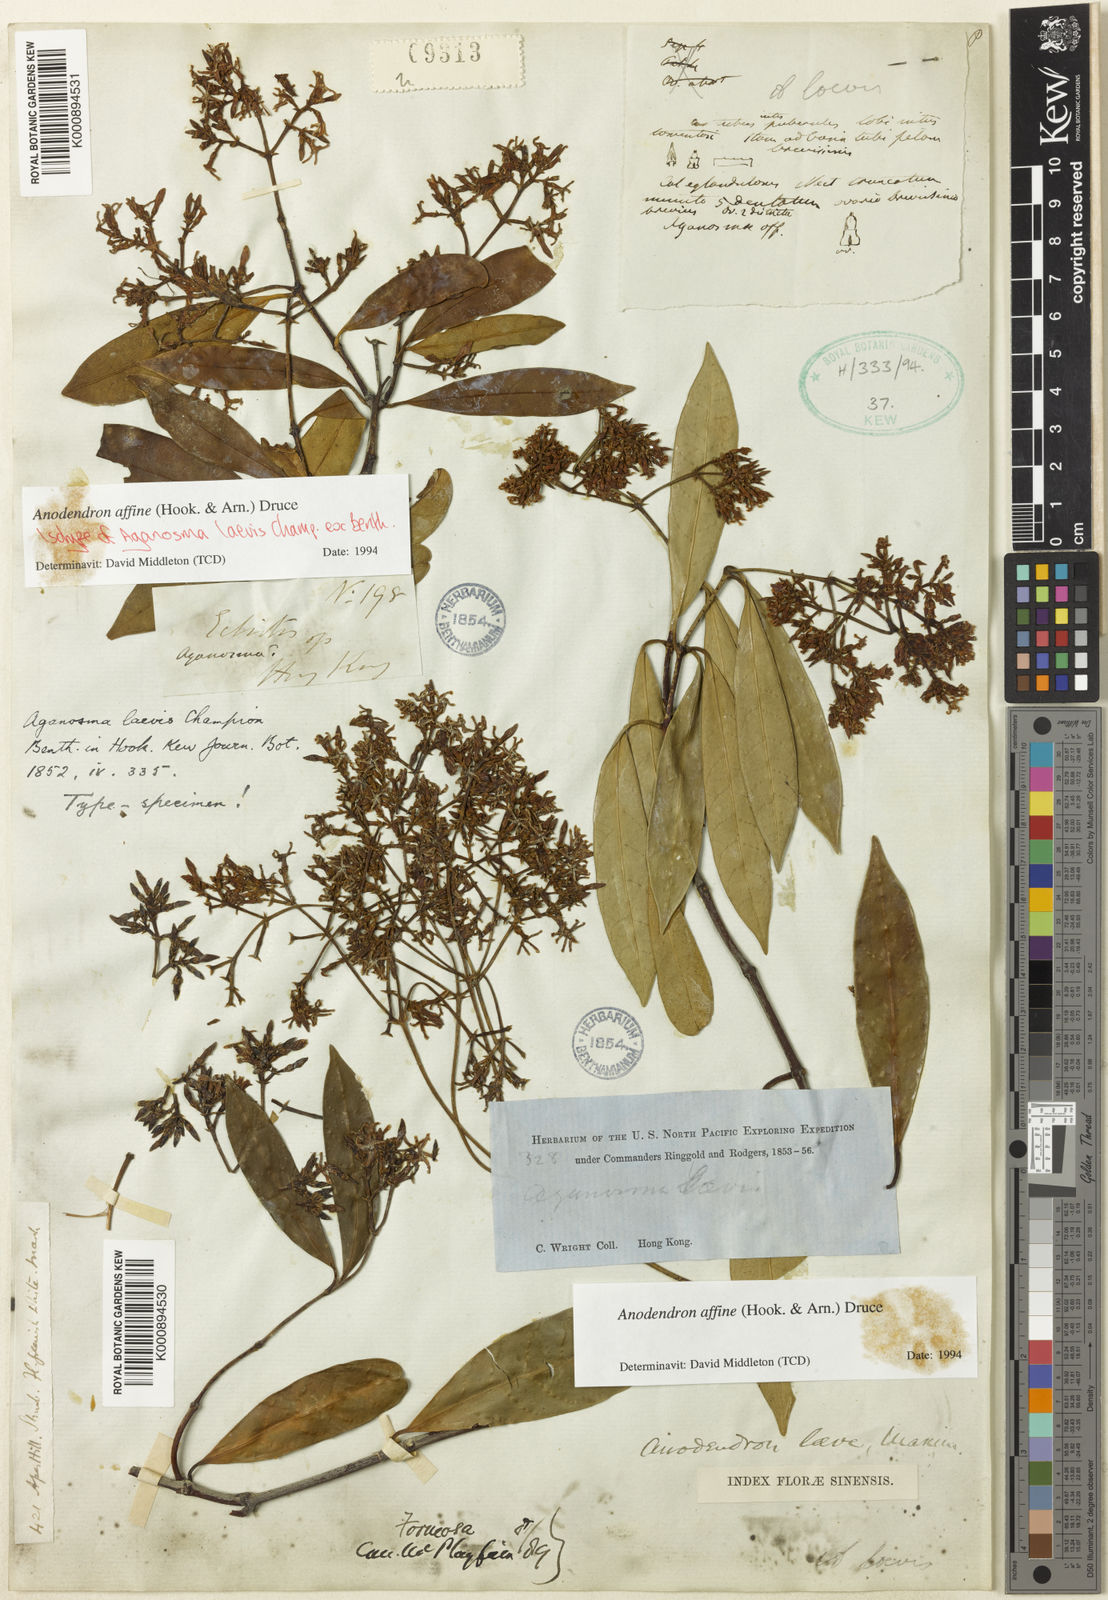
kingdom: Plantae
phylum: Tracheophyta
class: Magnoliopsida
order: Gentianales
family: Apocynaceae
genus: Anodendron
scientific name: Anodendron affine
